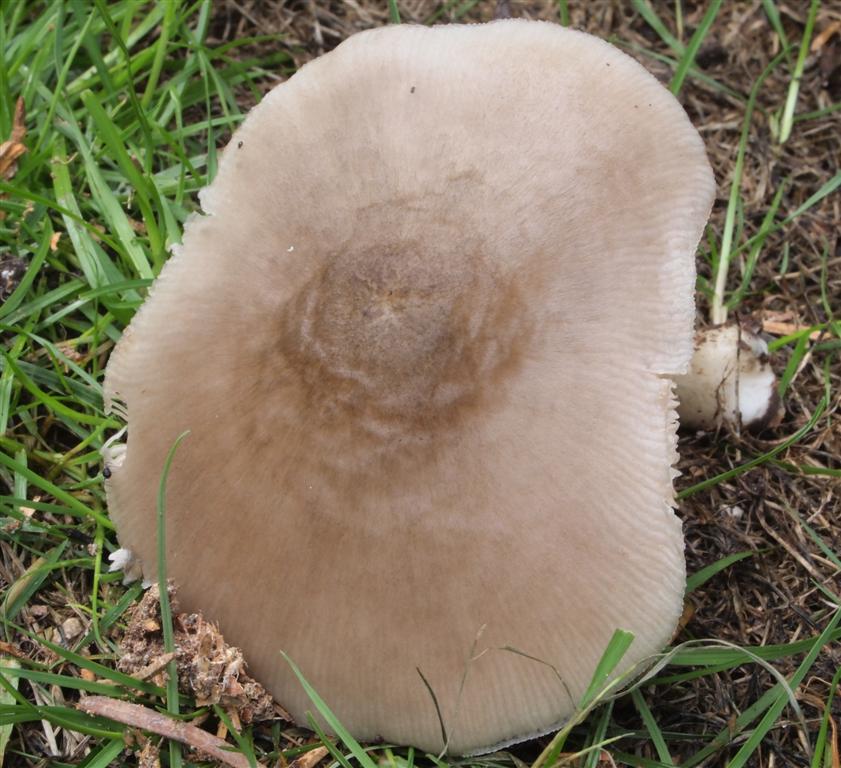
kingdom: Fungi
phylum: Basidiomycota
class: Agaricomycetes
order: Agaricales
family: Pluteaceae
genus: Pluteus
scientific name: Pluteus salicinus
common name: stiv skærmhat
